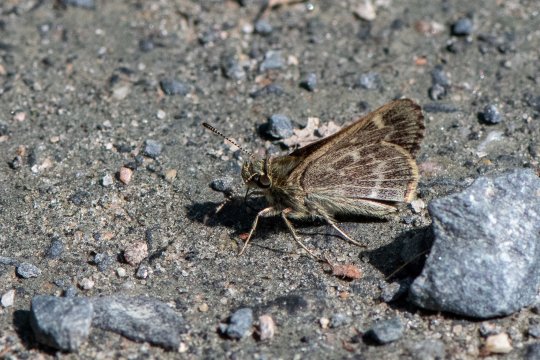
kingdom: Animalia
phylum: Arthropoda
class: Insecta
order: Lepidoptera
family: Hesperiidae
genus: Mastor
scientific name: Mastor hegon
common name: Pepper and Salt Skipper
